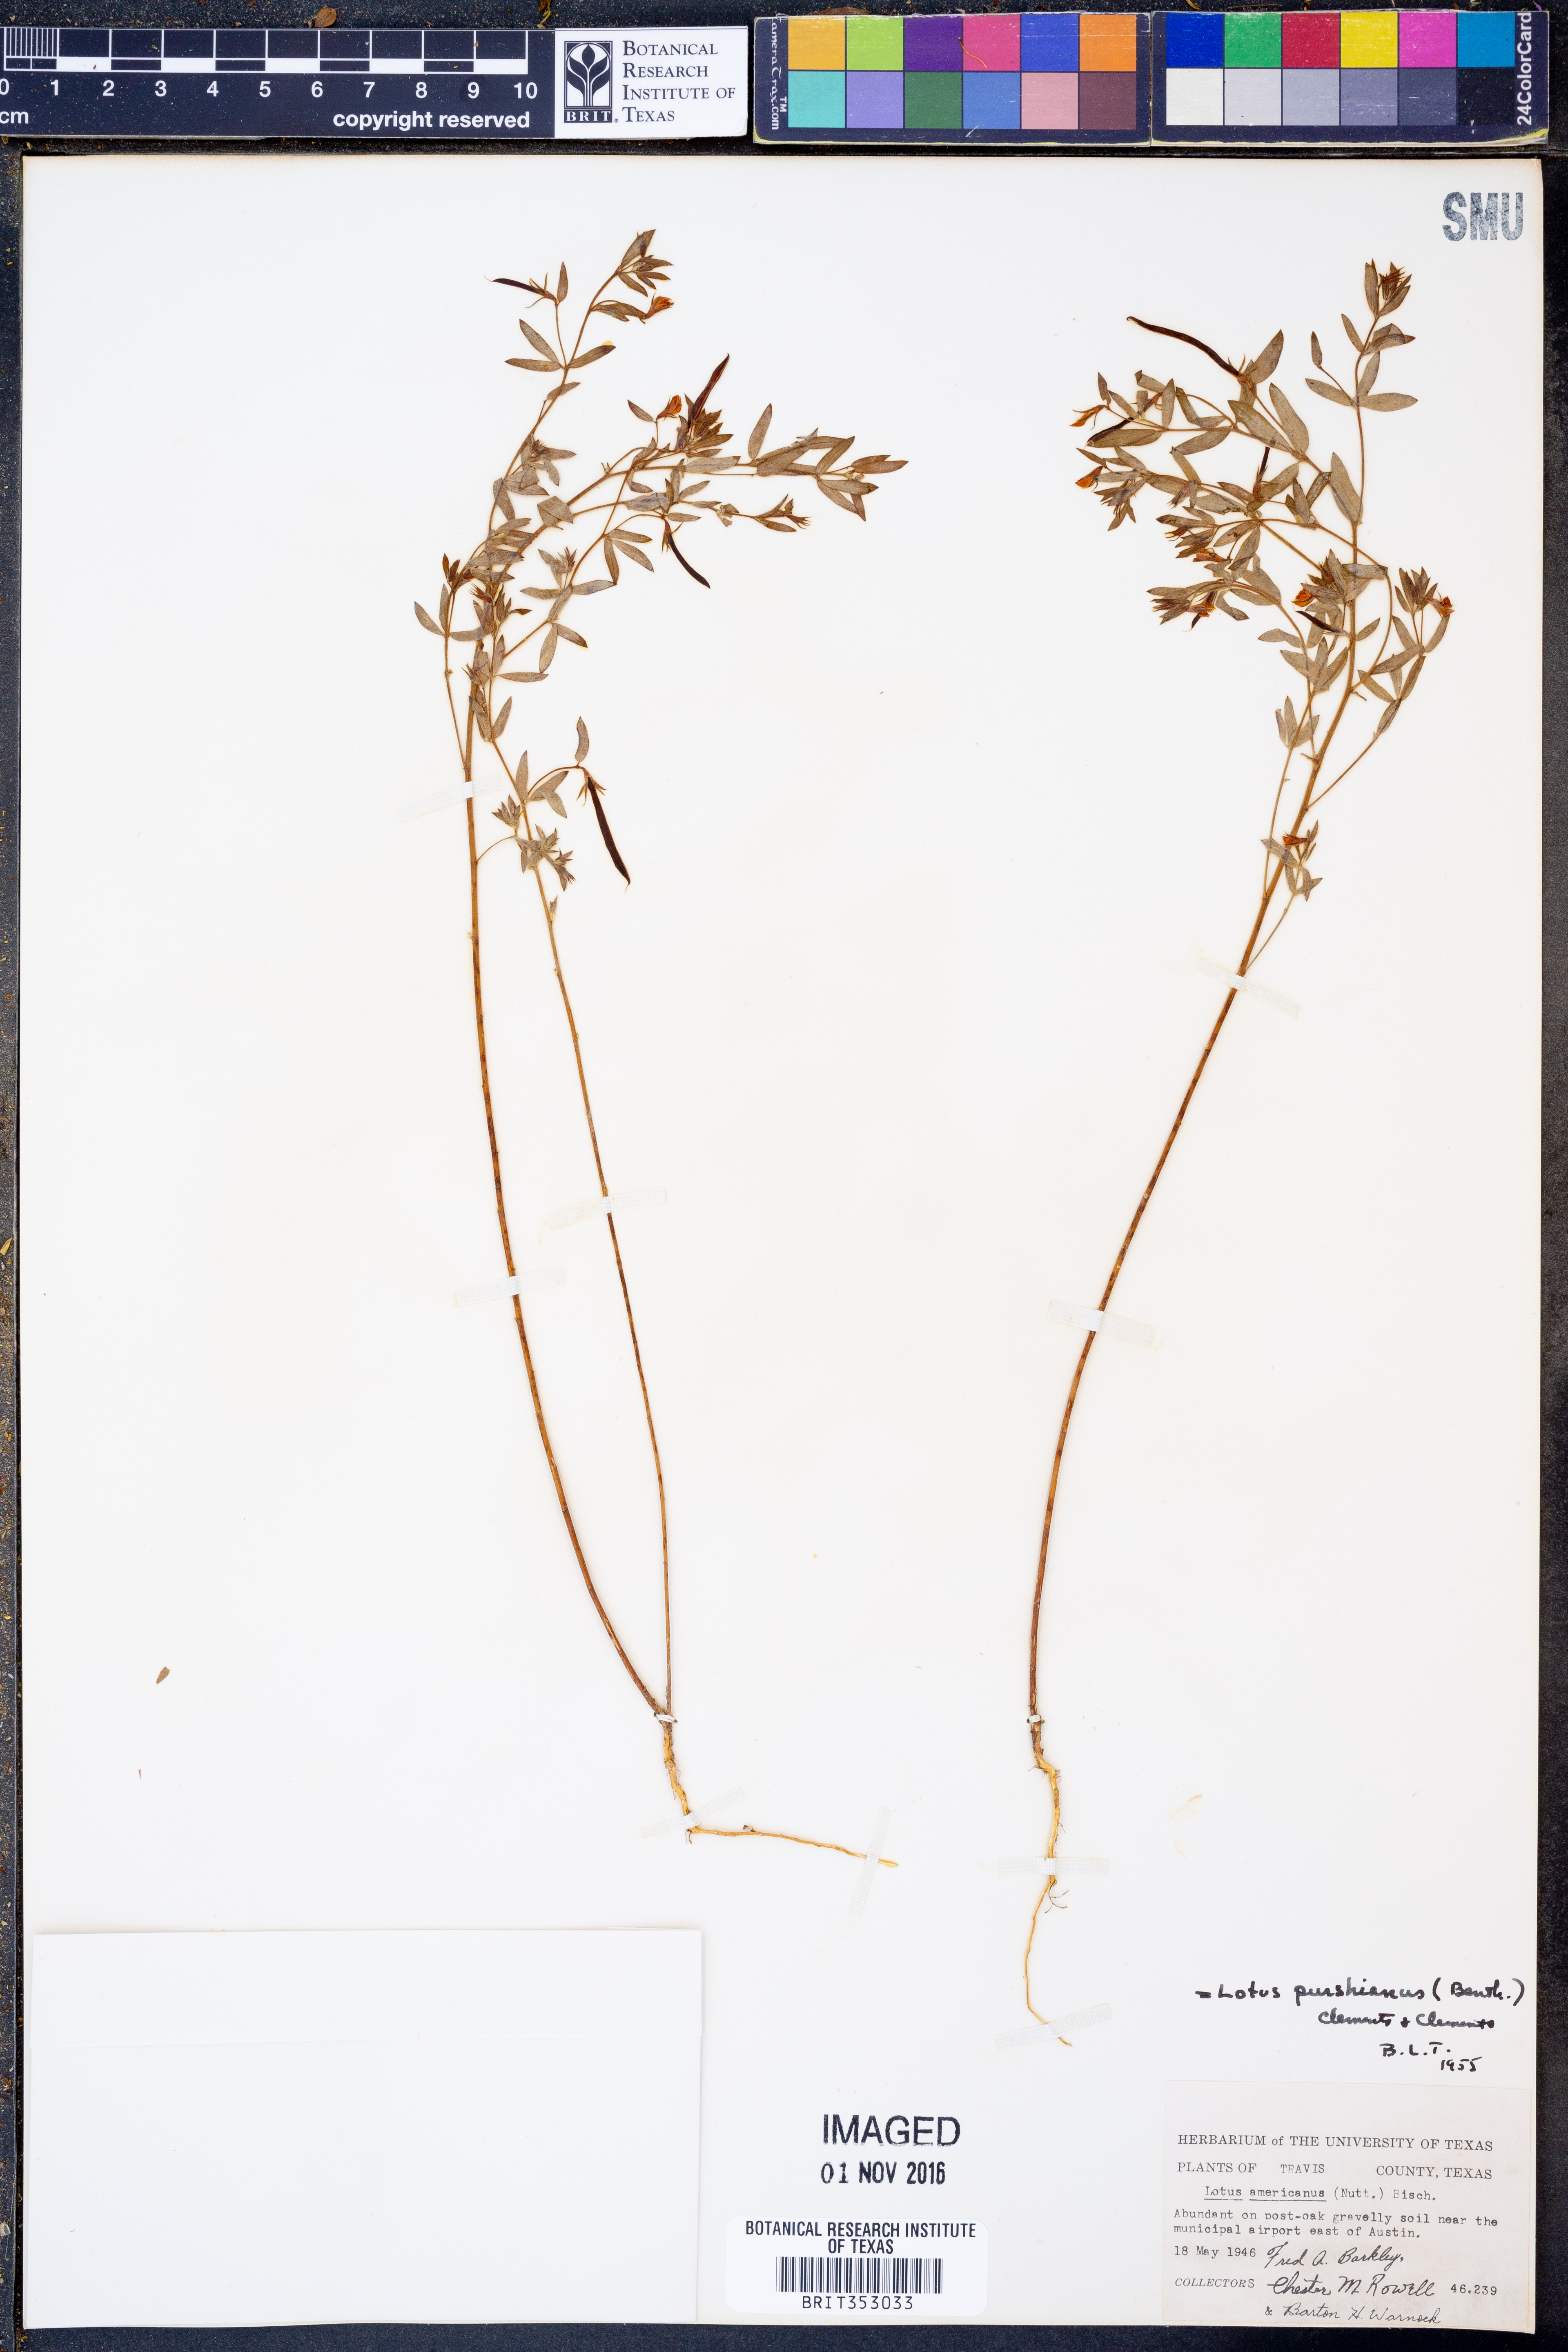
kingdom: Plantae
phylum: Tracheophyta
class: Magnoliopsida
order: Fabales
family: Fabaceae
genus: Acmispon
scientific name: Acmispon americanus
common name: American bird's-foot trefoil
